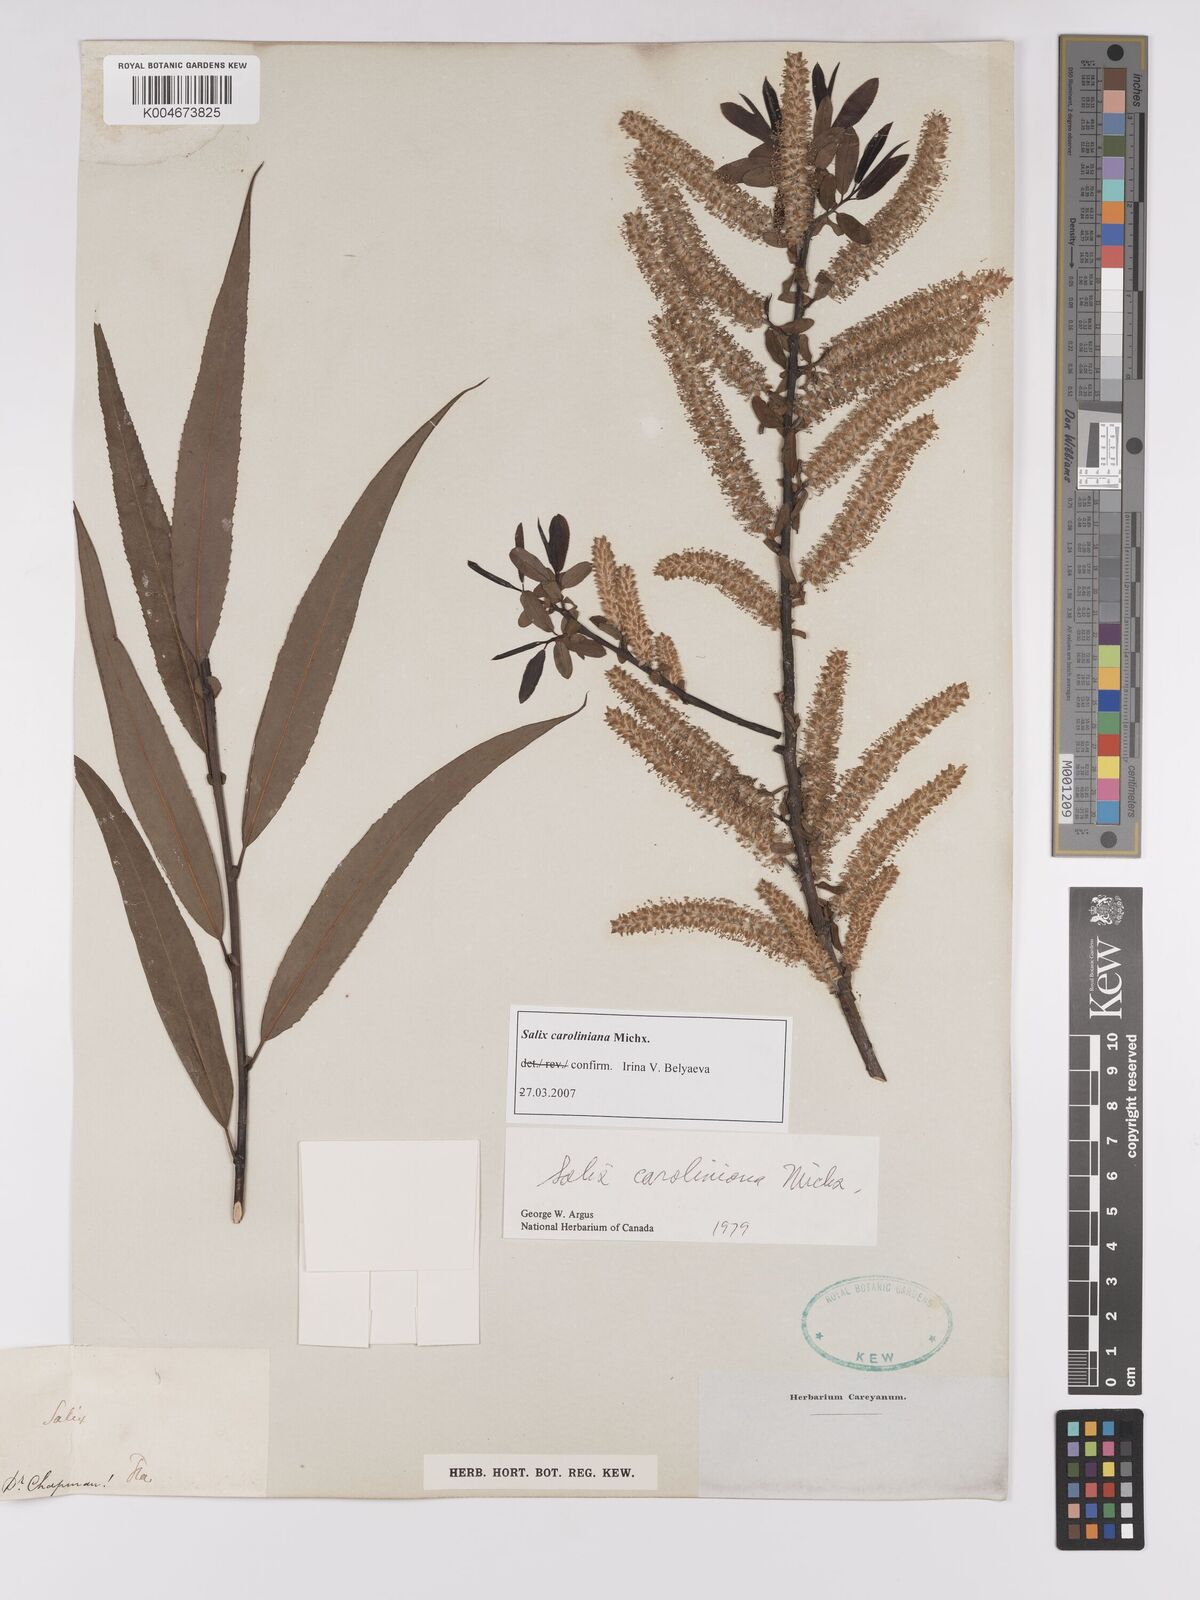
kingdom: Plantae
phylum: Tracheophyta
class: Magnoliopsida
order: Malpighiales
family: Salicaceae
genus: Salix
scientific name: Salix caroliniana
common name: Carolina willow
